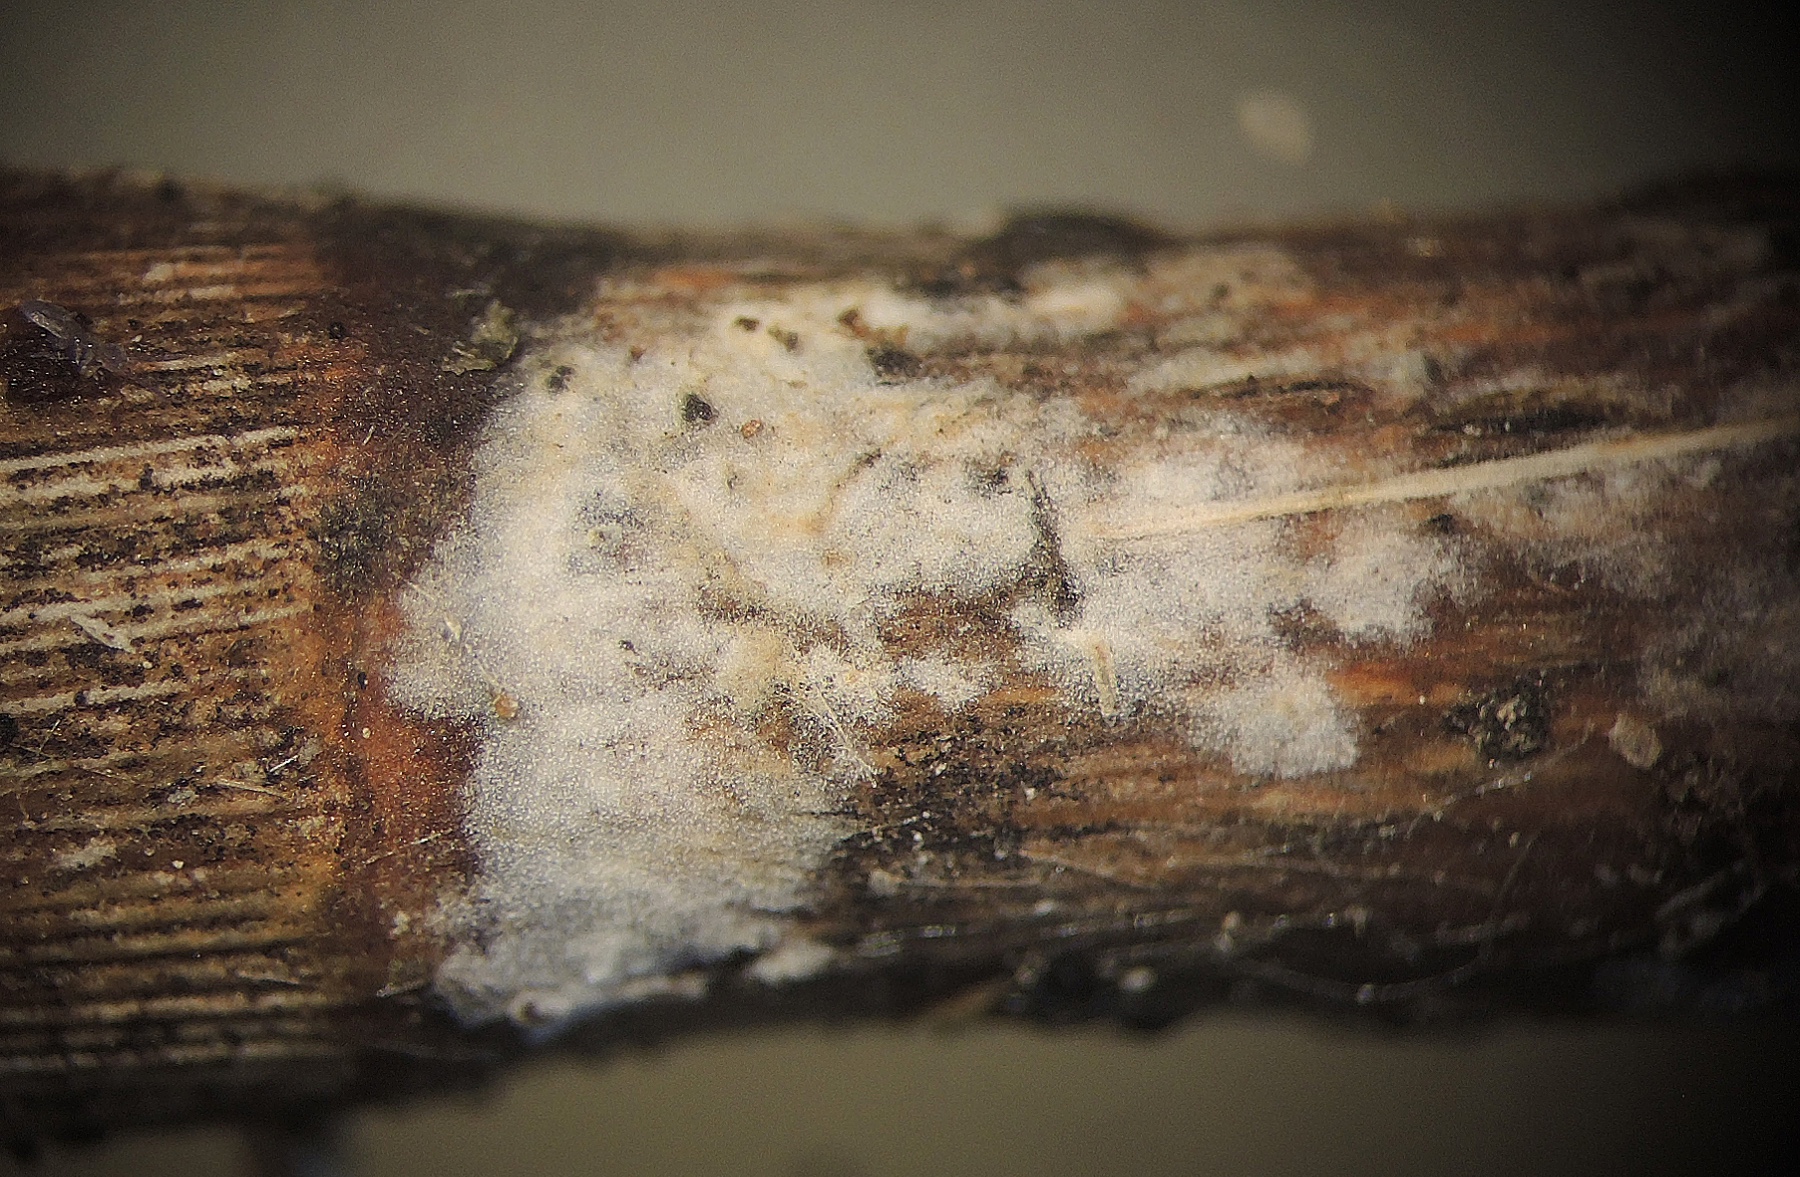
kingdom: Fungi
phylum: Basidiomycota
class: Agaricomycetes
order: Russulales
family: Stereaceae
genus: Acanthobasidium
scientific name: Acanthobasidium delicatum
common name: tagrør-skiveskorpe
